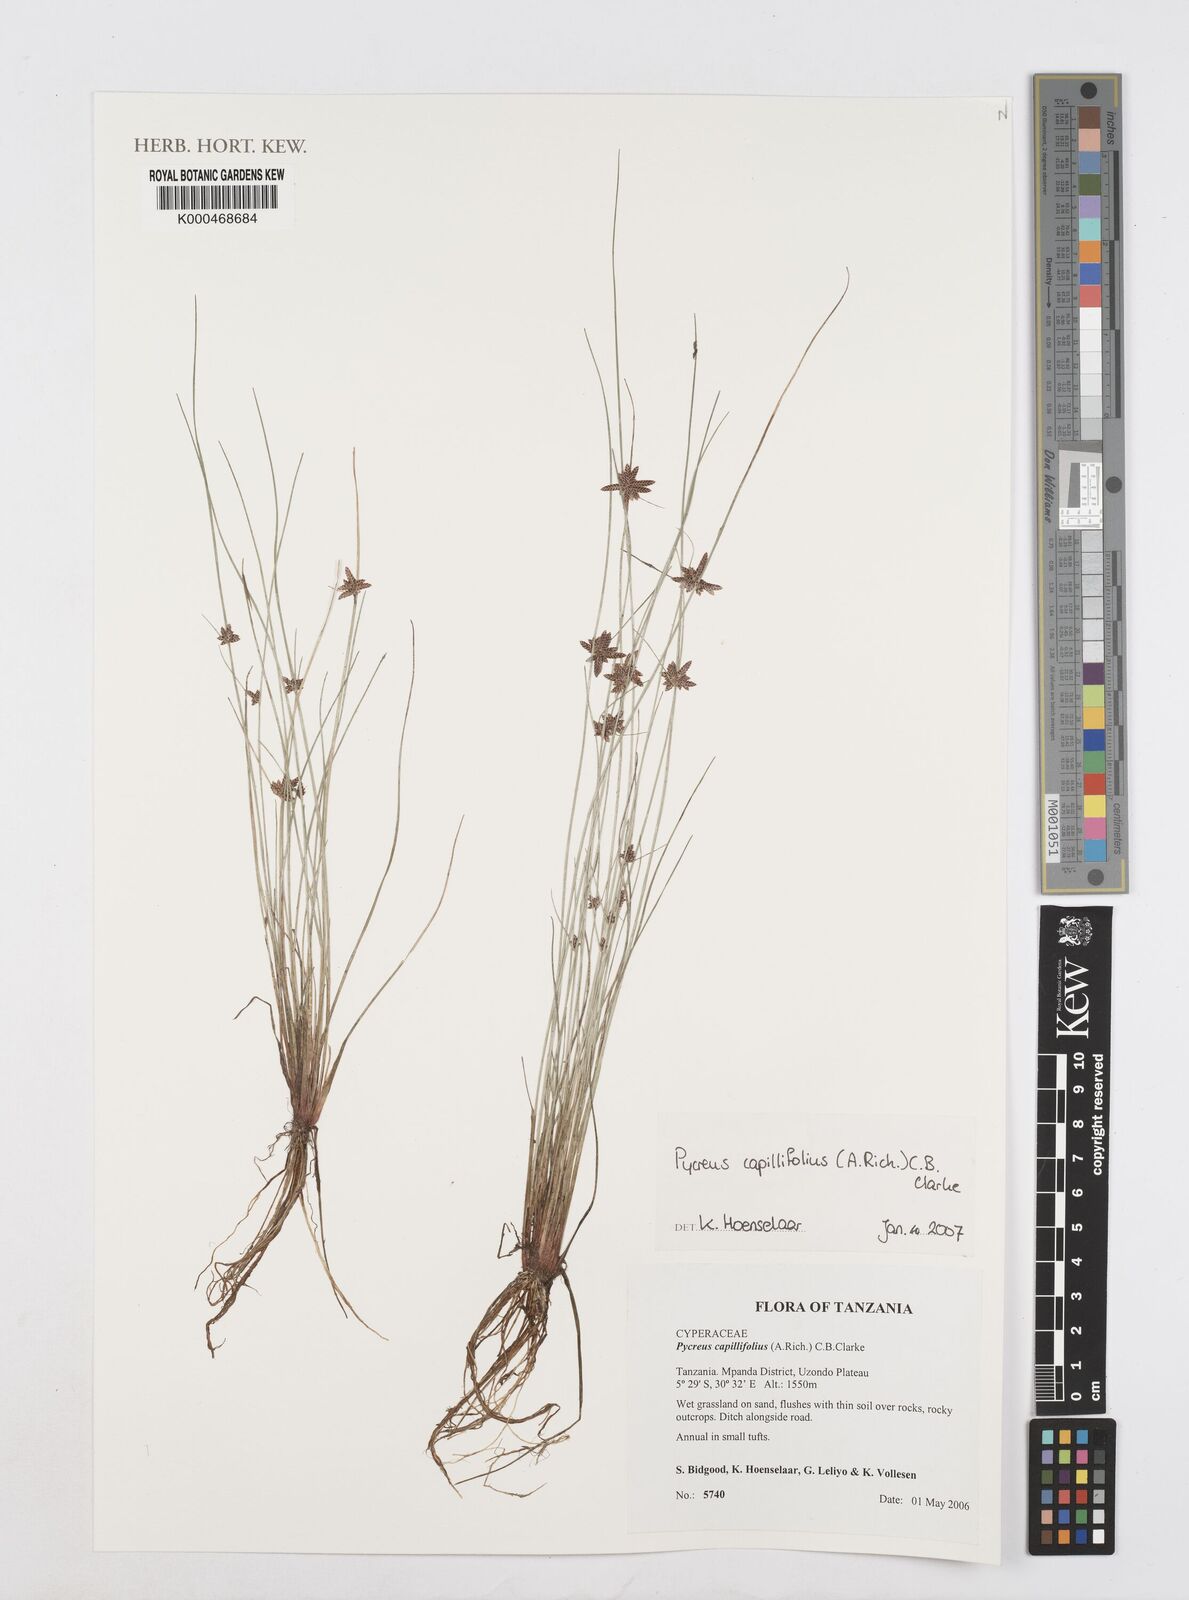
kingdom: Plantae
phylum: Tracheophyta
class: Liliopsida
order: Poales
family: Cyperaceae
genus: Cyperus
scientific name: Cyperus capillifolius
